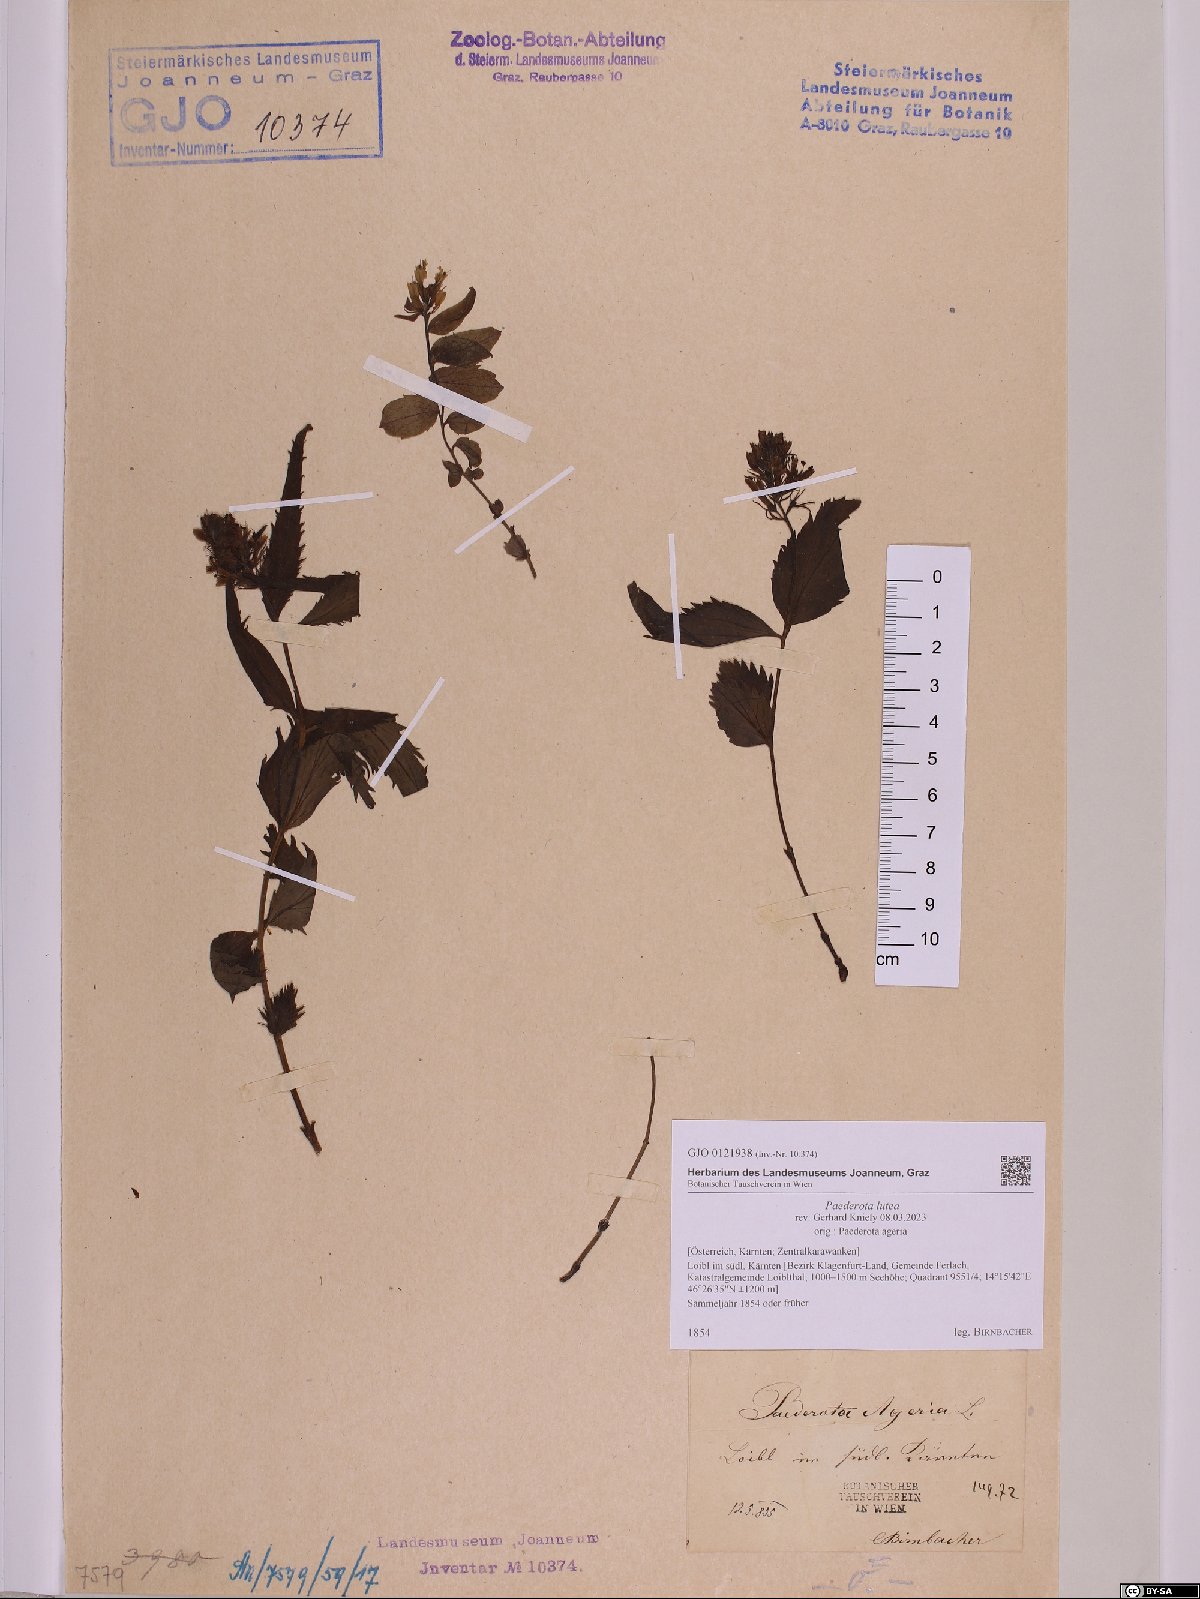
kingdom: Plantae
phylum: Tracheophyta
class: Magnoliopsida
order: Lamiales
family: Plantaginaceae
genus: Paederota
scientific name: Paederota lutea
